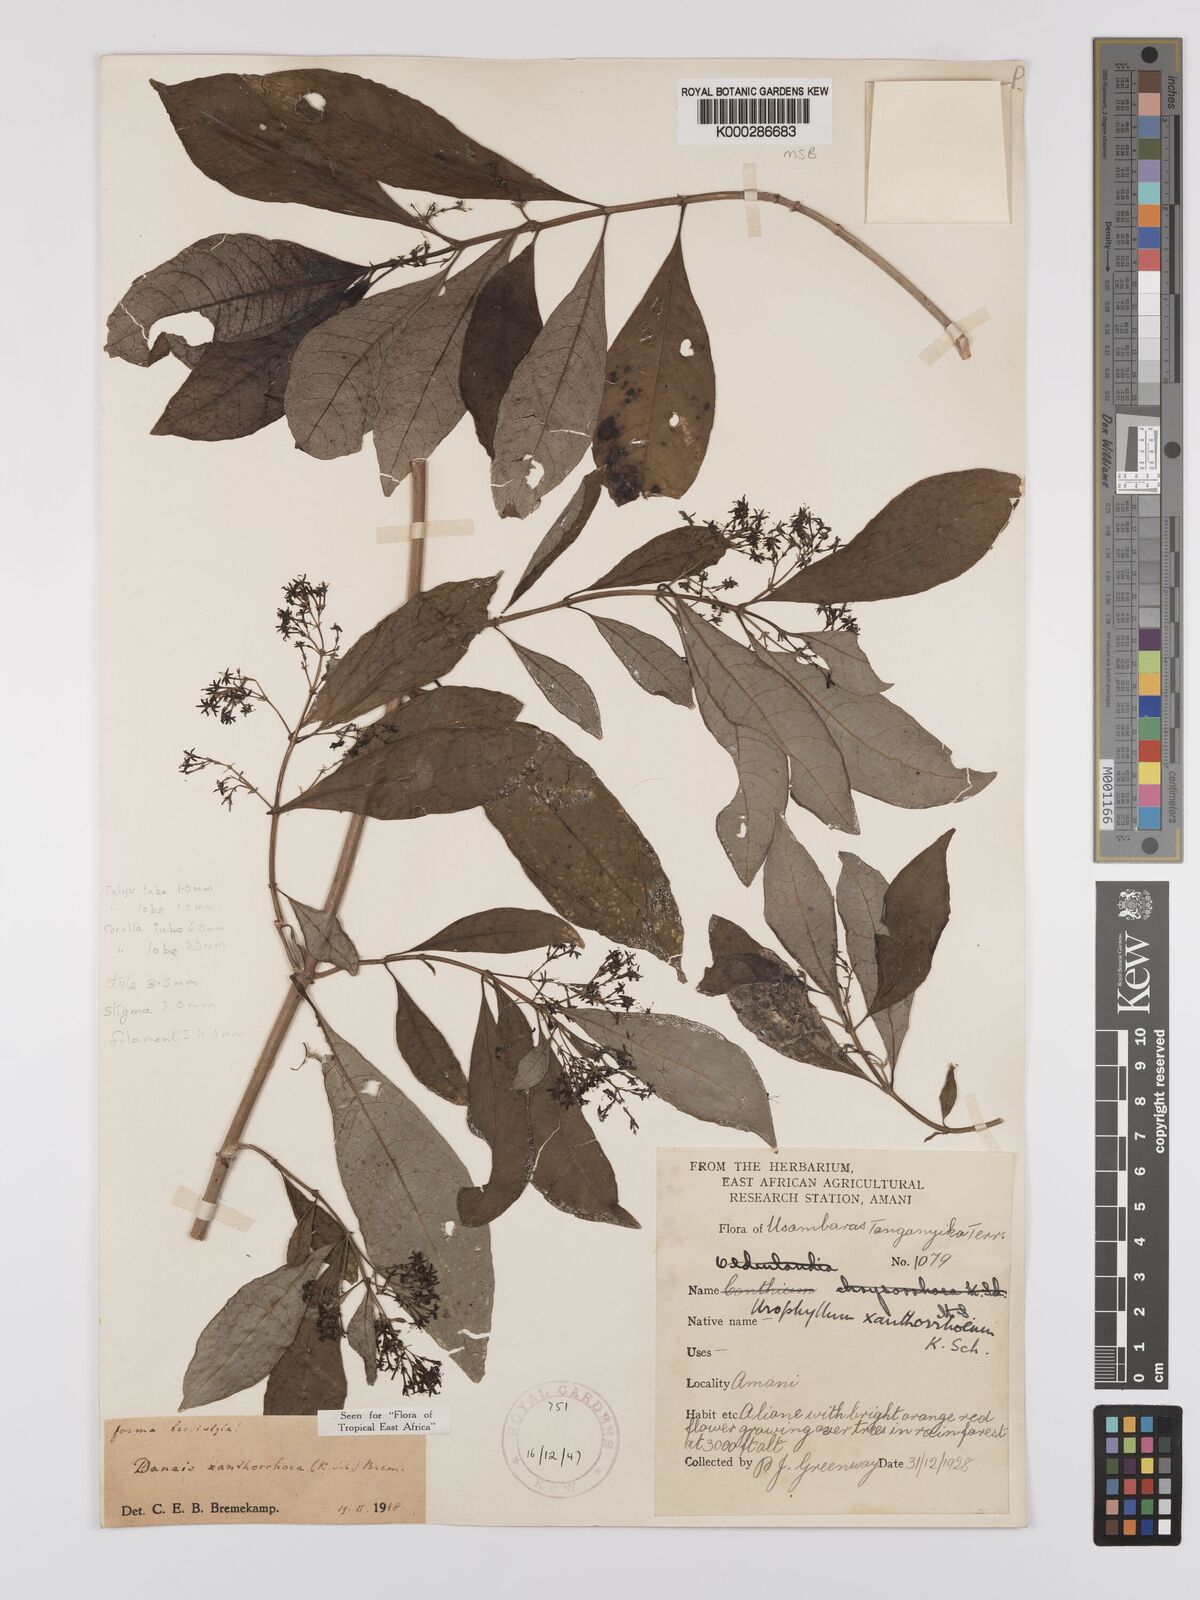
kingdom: Plantae
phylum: Tracheophyta
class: Magnoliopsida
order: Gentianales
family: Rubiaceae
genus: Danais
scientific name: Danais xanthorrhoea
